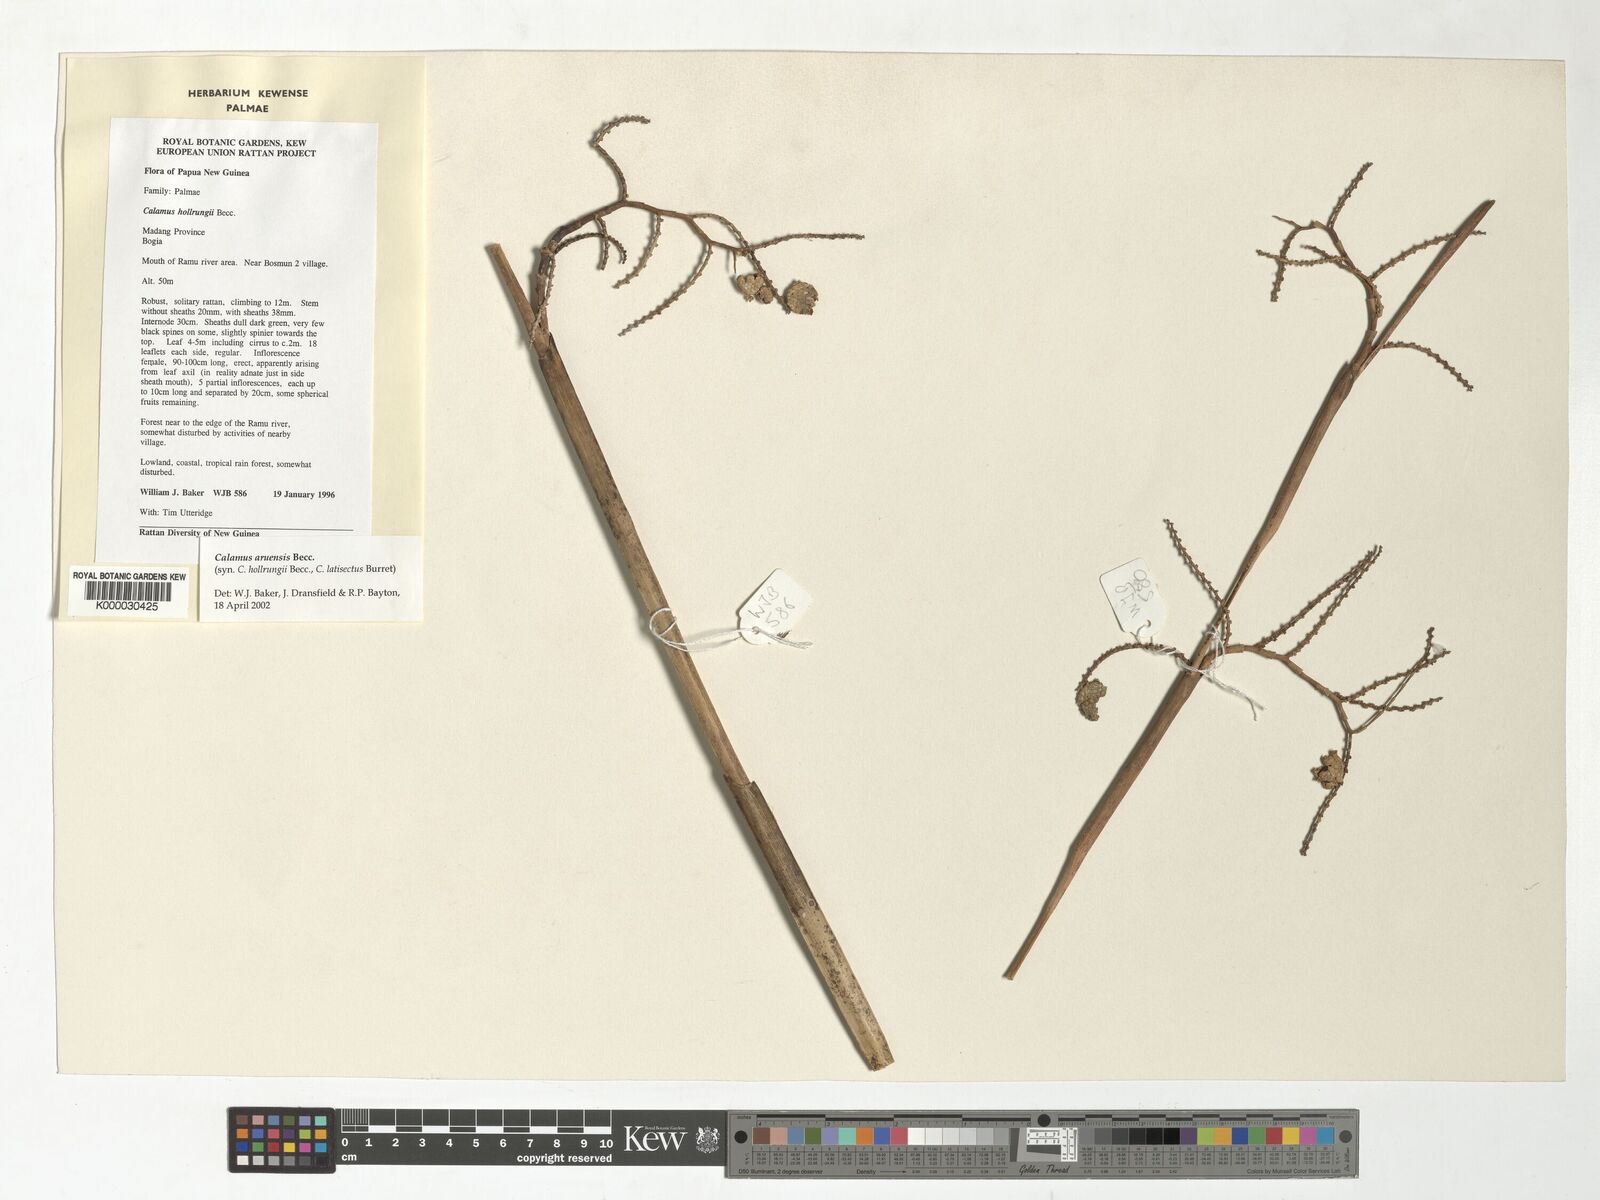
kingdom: Plantae
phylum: Tracheophyta
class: Liliopsida
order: Arecales
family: Arecaceae
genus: Calamus
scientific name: Calamus aruensis
